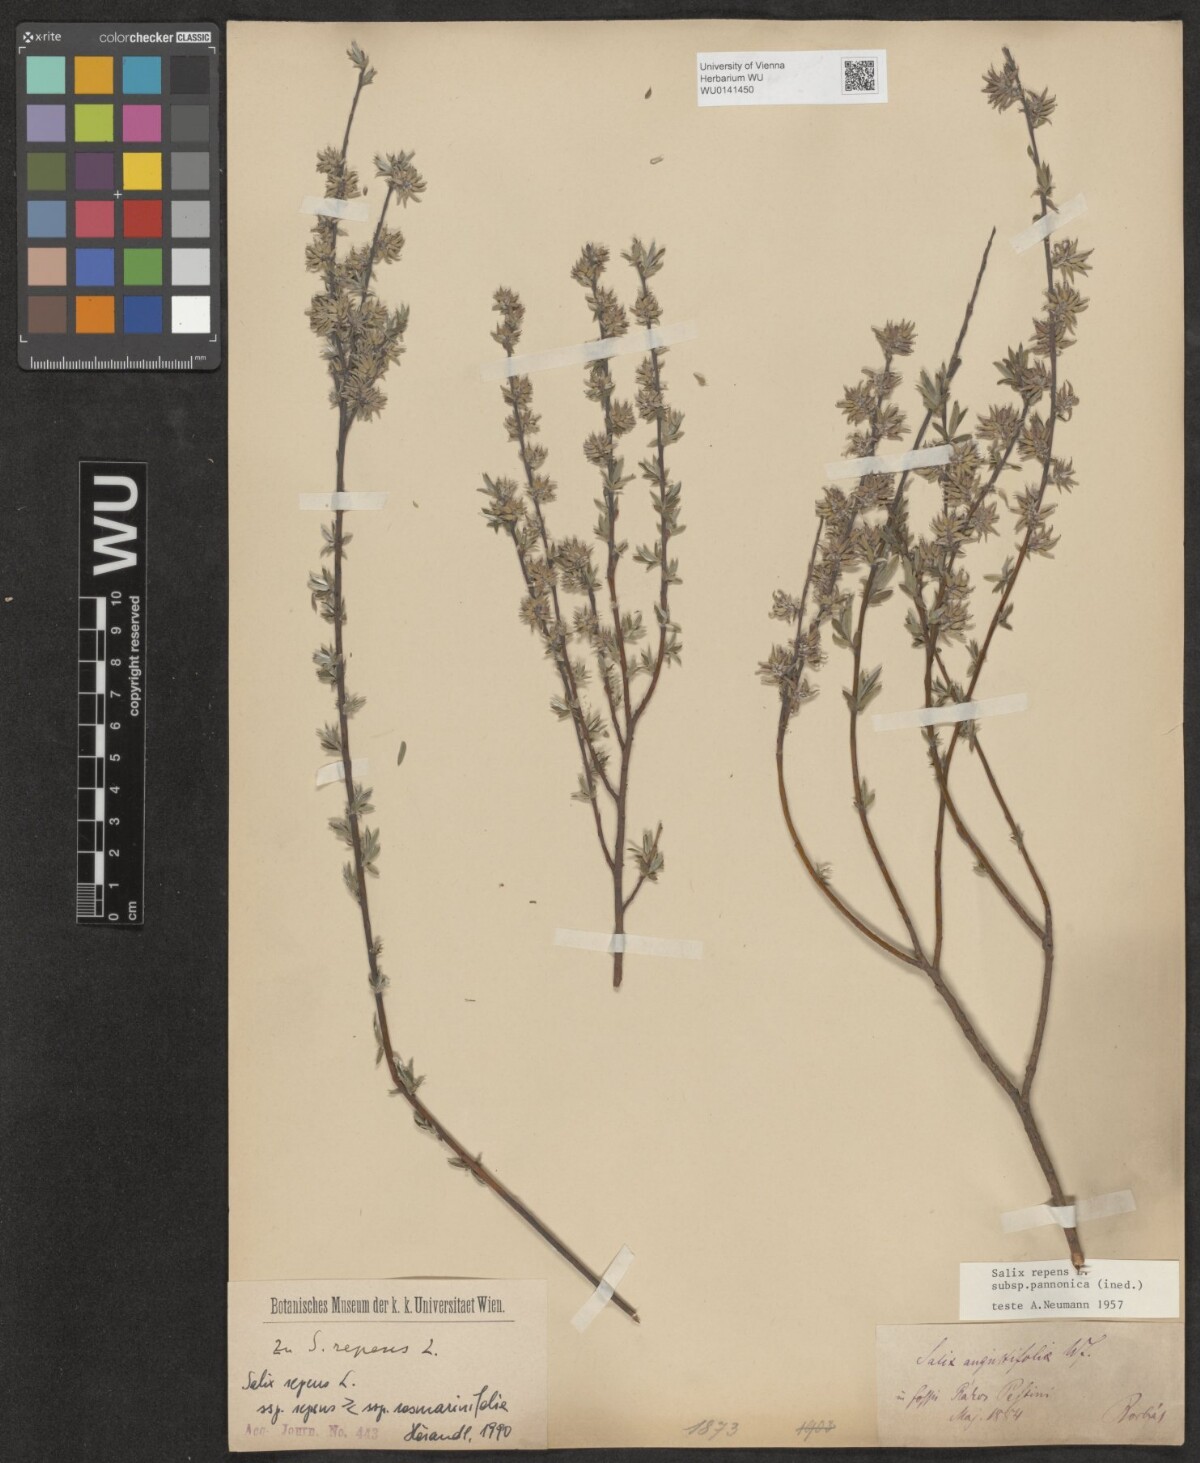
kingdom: Plantae
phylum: Tracheophyta
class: Magnoliopsida
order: Malpighiales
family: Salicaceae
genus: Salix
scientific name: Salix repens
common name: Creeping willow
